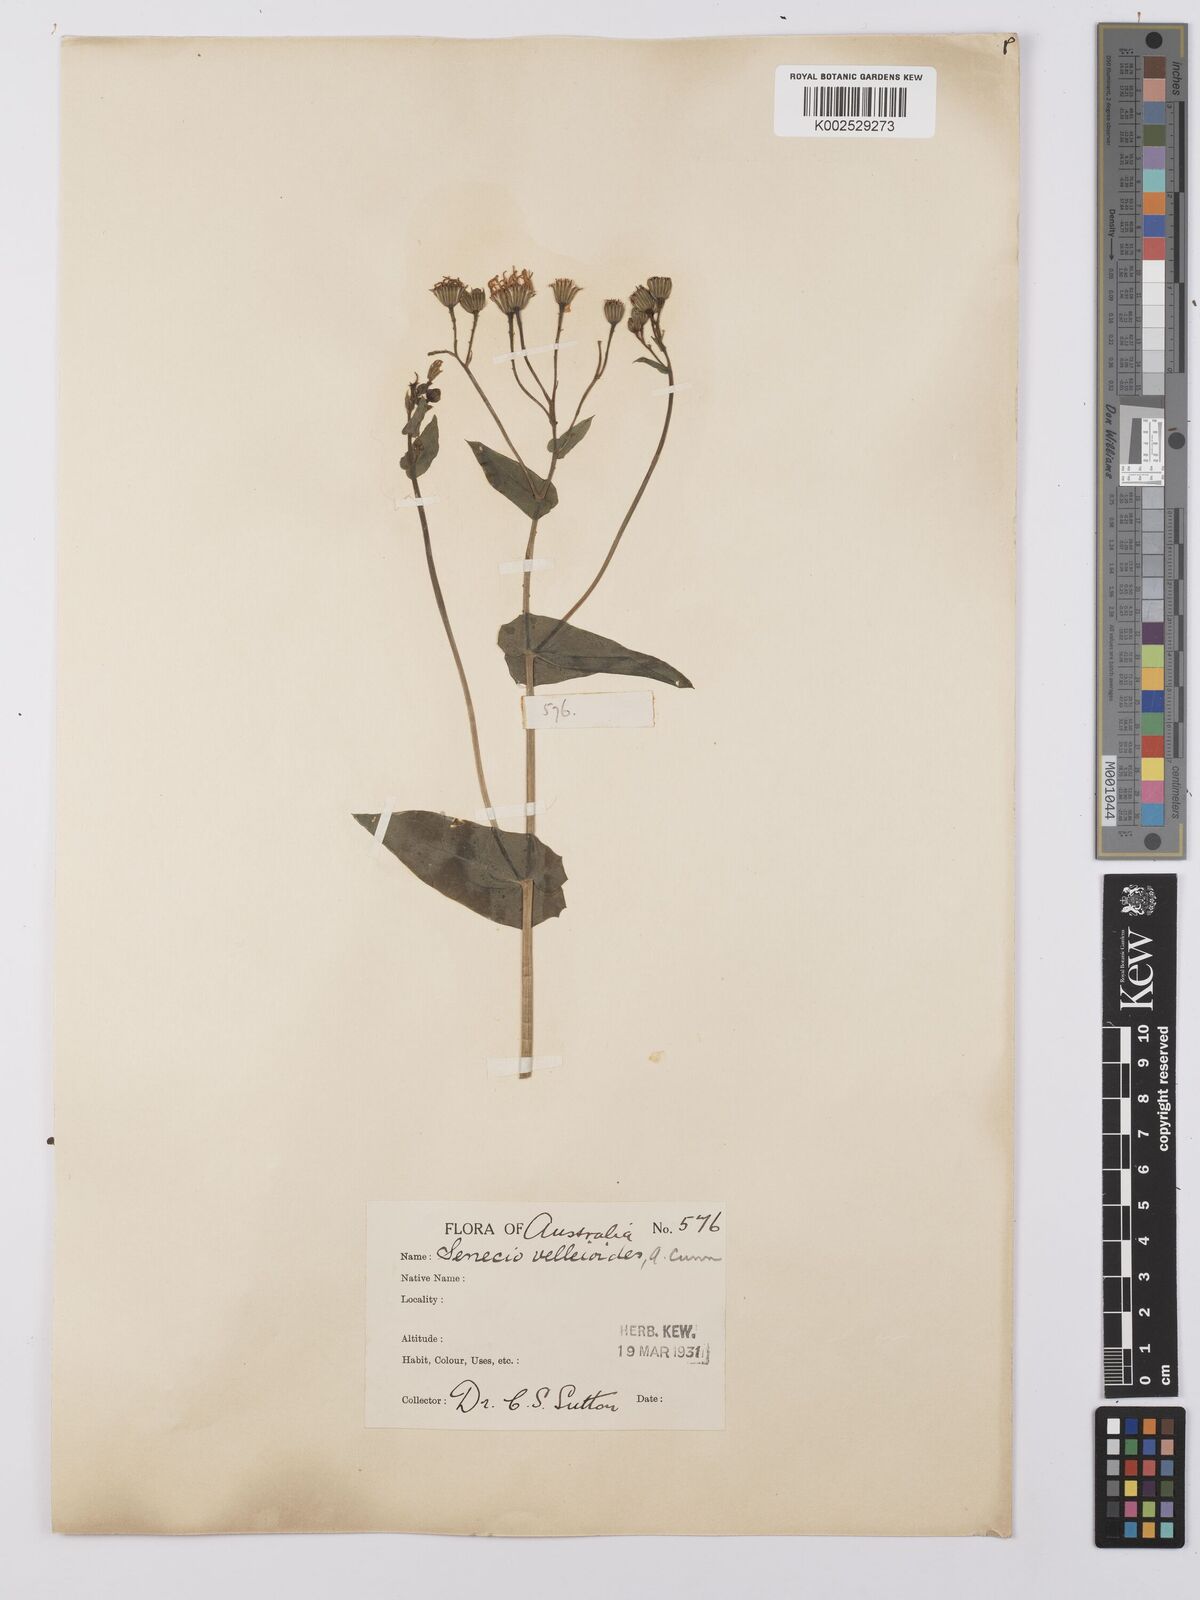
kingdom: Plantae
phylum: Tracheophyta
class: Magnoliopsida
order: Asterales
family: Asteraceae
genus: Lordhowea
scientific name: Lordhowea velleioides
